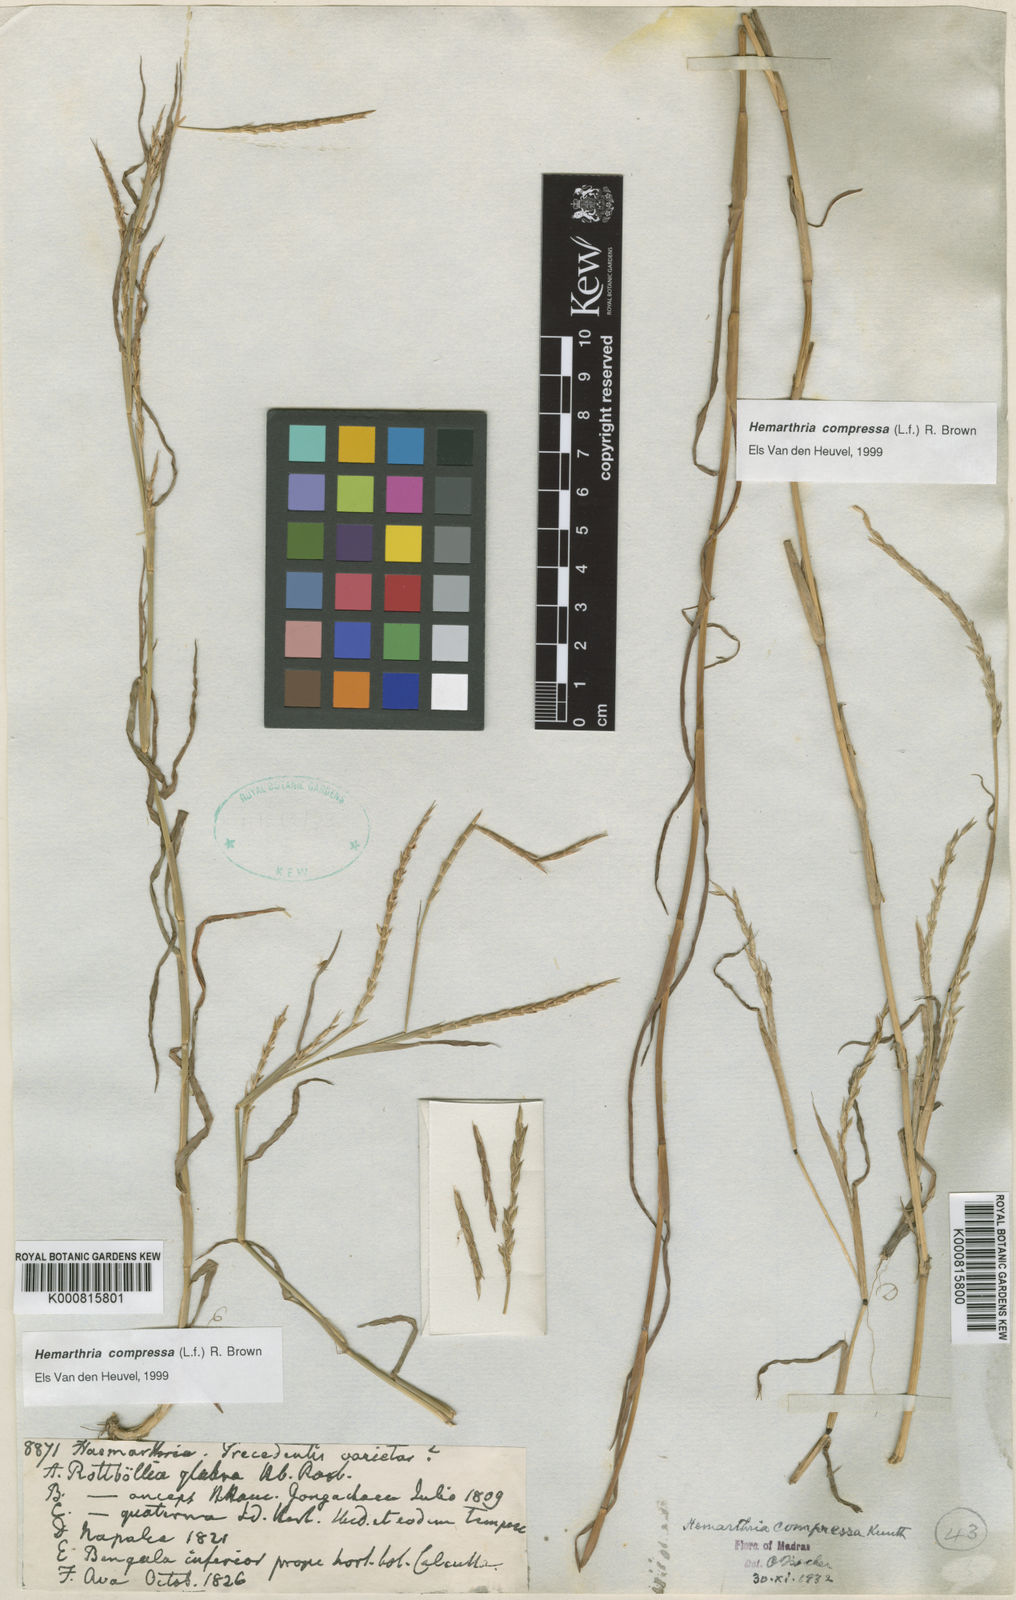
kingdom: Plantae
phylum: Tracheophyta
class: Liliopsida
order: Poales
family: Poaceae
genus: Hemarthria
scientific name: Hemarthria compressa
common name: Whip grass
